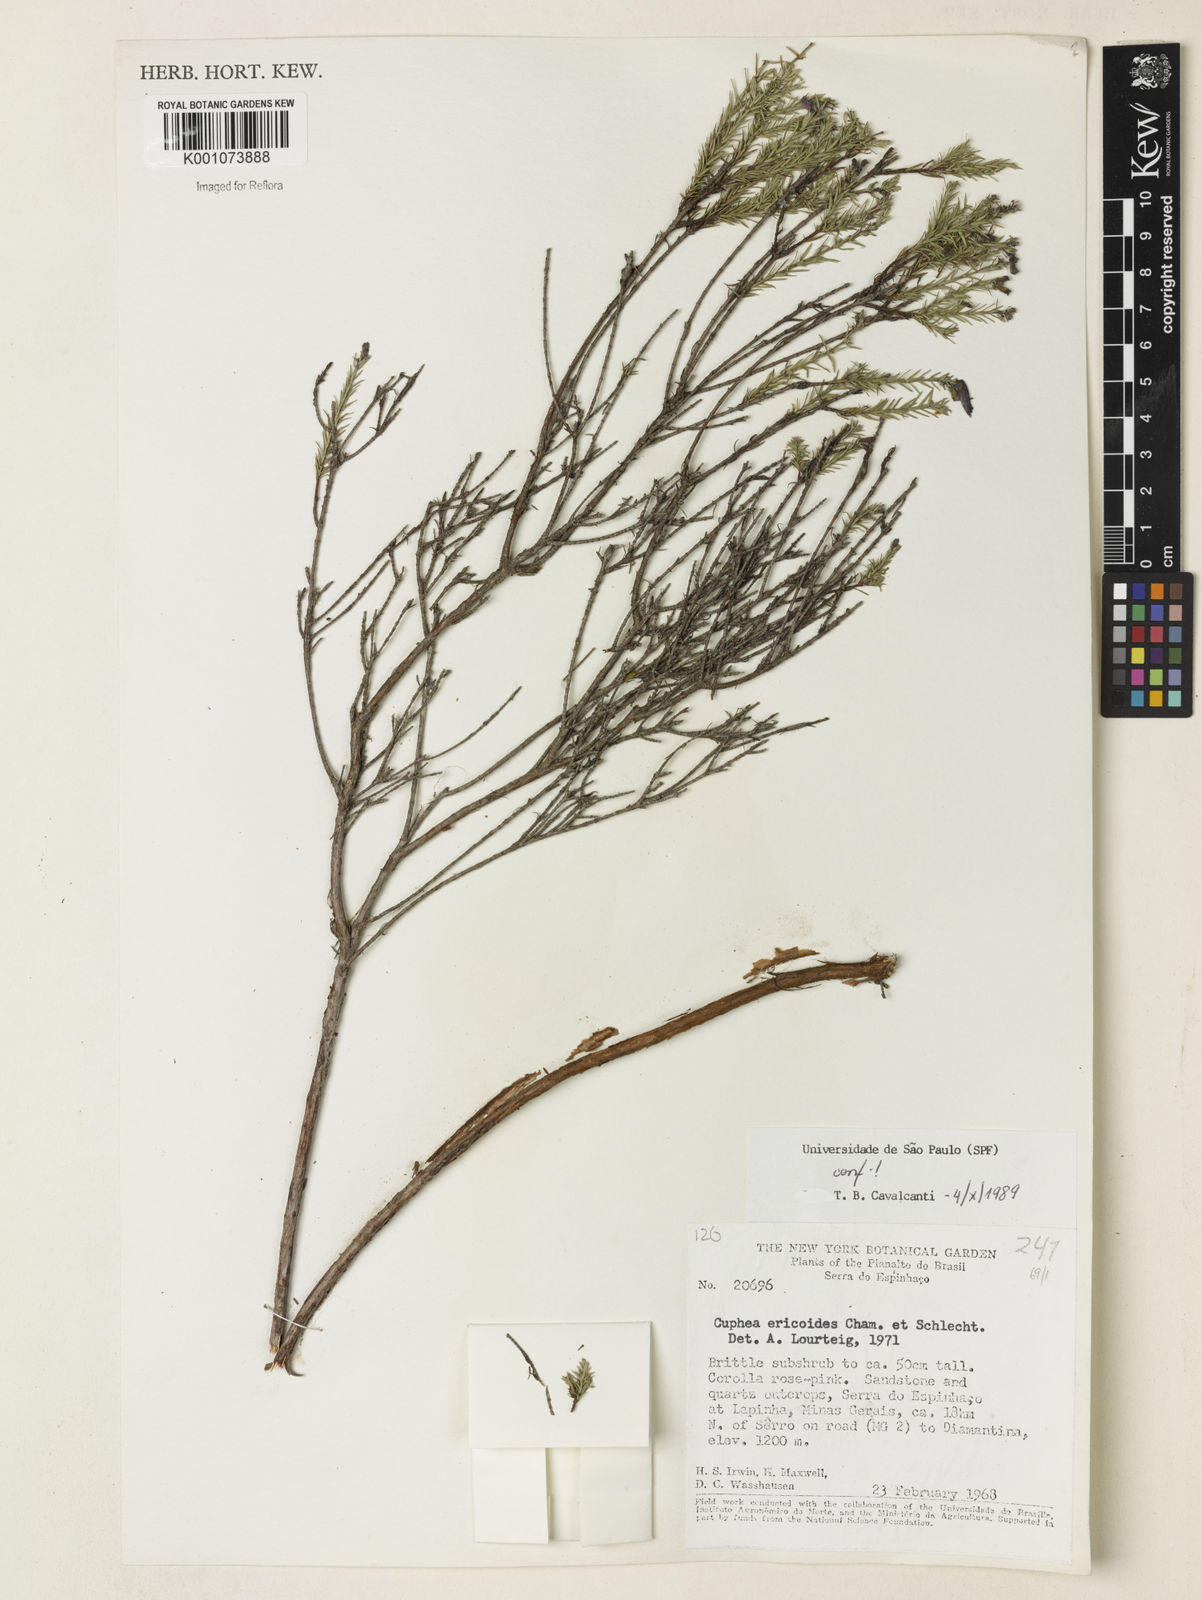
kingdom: Plantae
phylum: Tracheophyta
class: Magnoliopsida
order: Myrtales
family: Lythraceae
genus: Cuphea
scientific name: Cuphea ericoides
